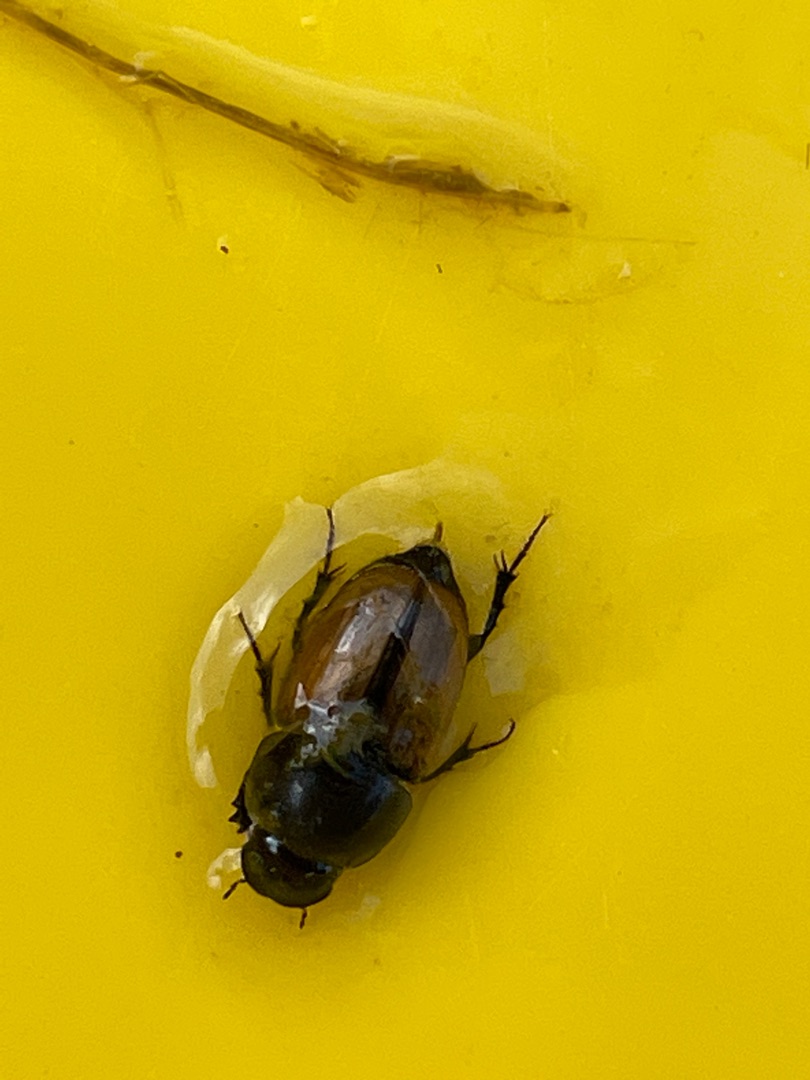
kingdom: Animalia
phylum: Arthropoda
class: Insecta
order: Coleoptera
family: Scarabaeidae
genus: Colobopterus
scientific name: Colobopterus erraticus
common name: Vagabonderende møgbille
